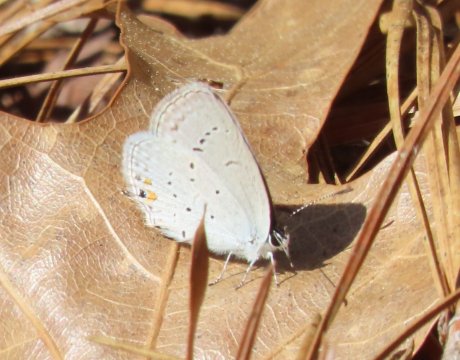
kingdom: Animalia
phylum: Arthropoda
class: Insecta
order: Lepidoptera
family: Lycaenidae
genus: Elkalyce
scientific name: Elkalyce comyntas
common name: Eastern Tailed-Blue
